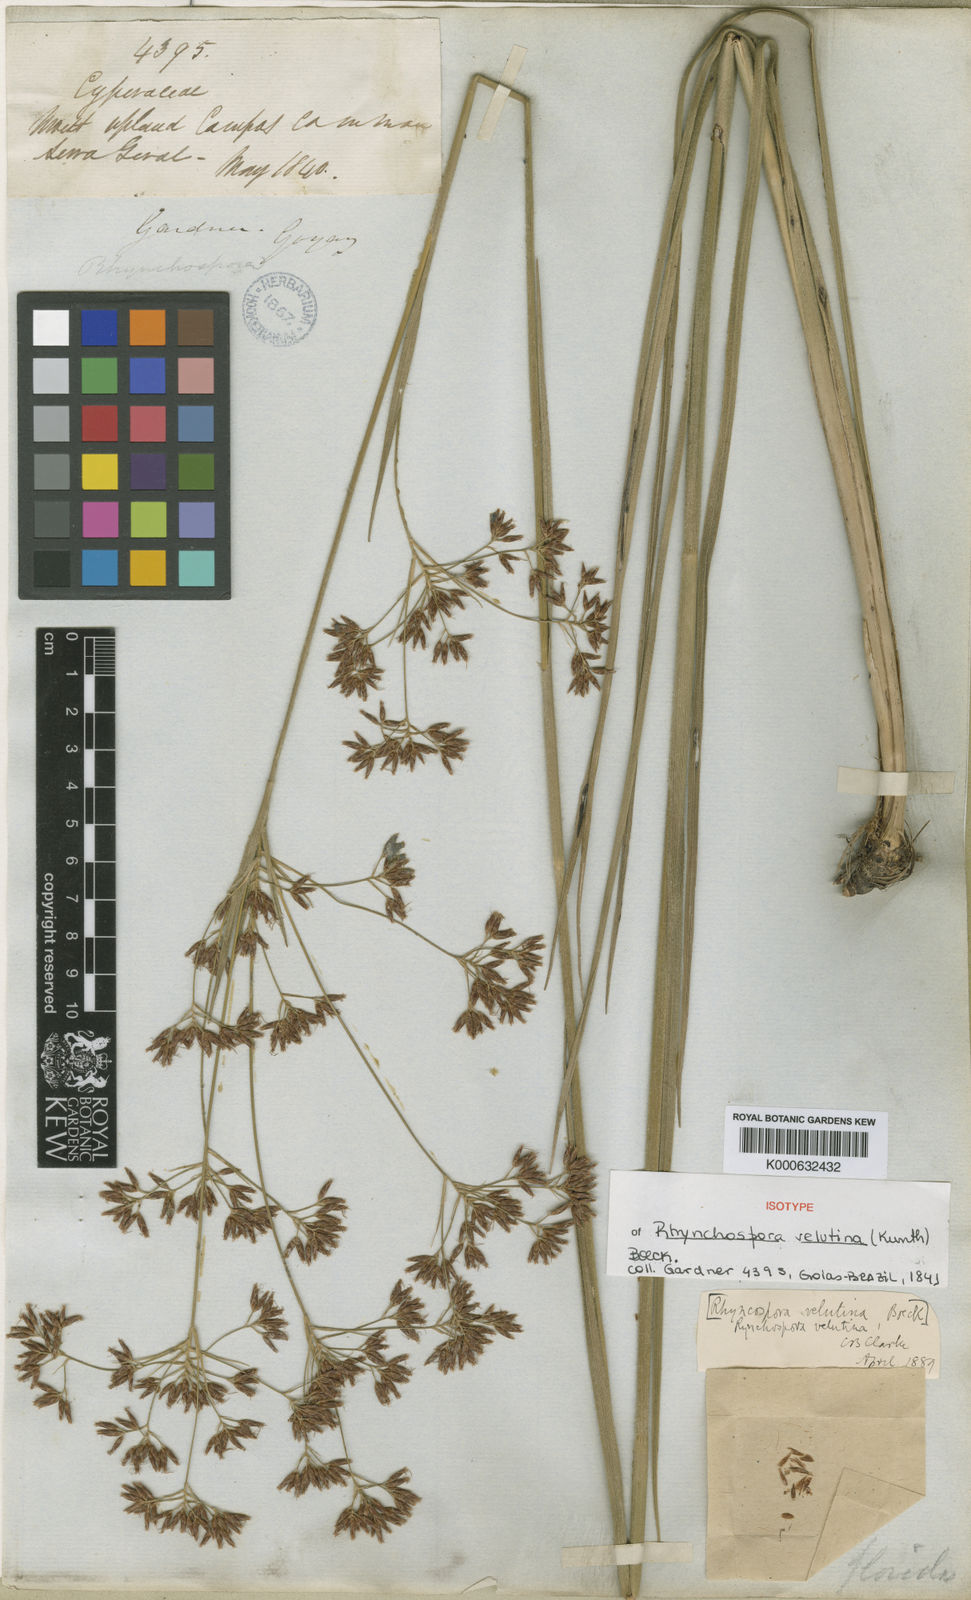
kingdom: Plantae
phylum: Tracheophyta
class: Liliopsida
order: Poales
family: Cyperaceae
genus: Rhynchospora
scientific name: Rhynchospora velutina
